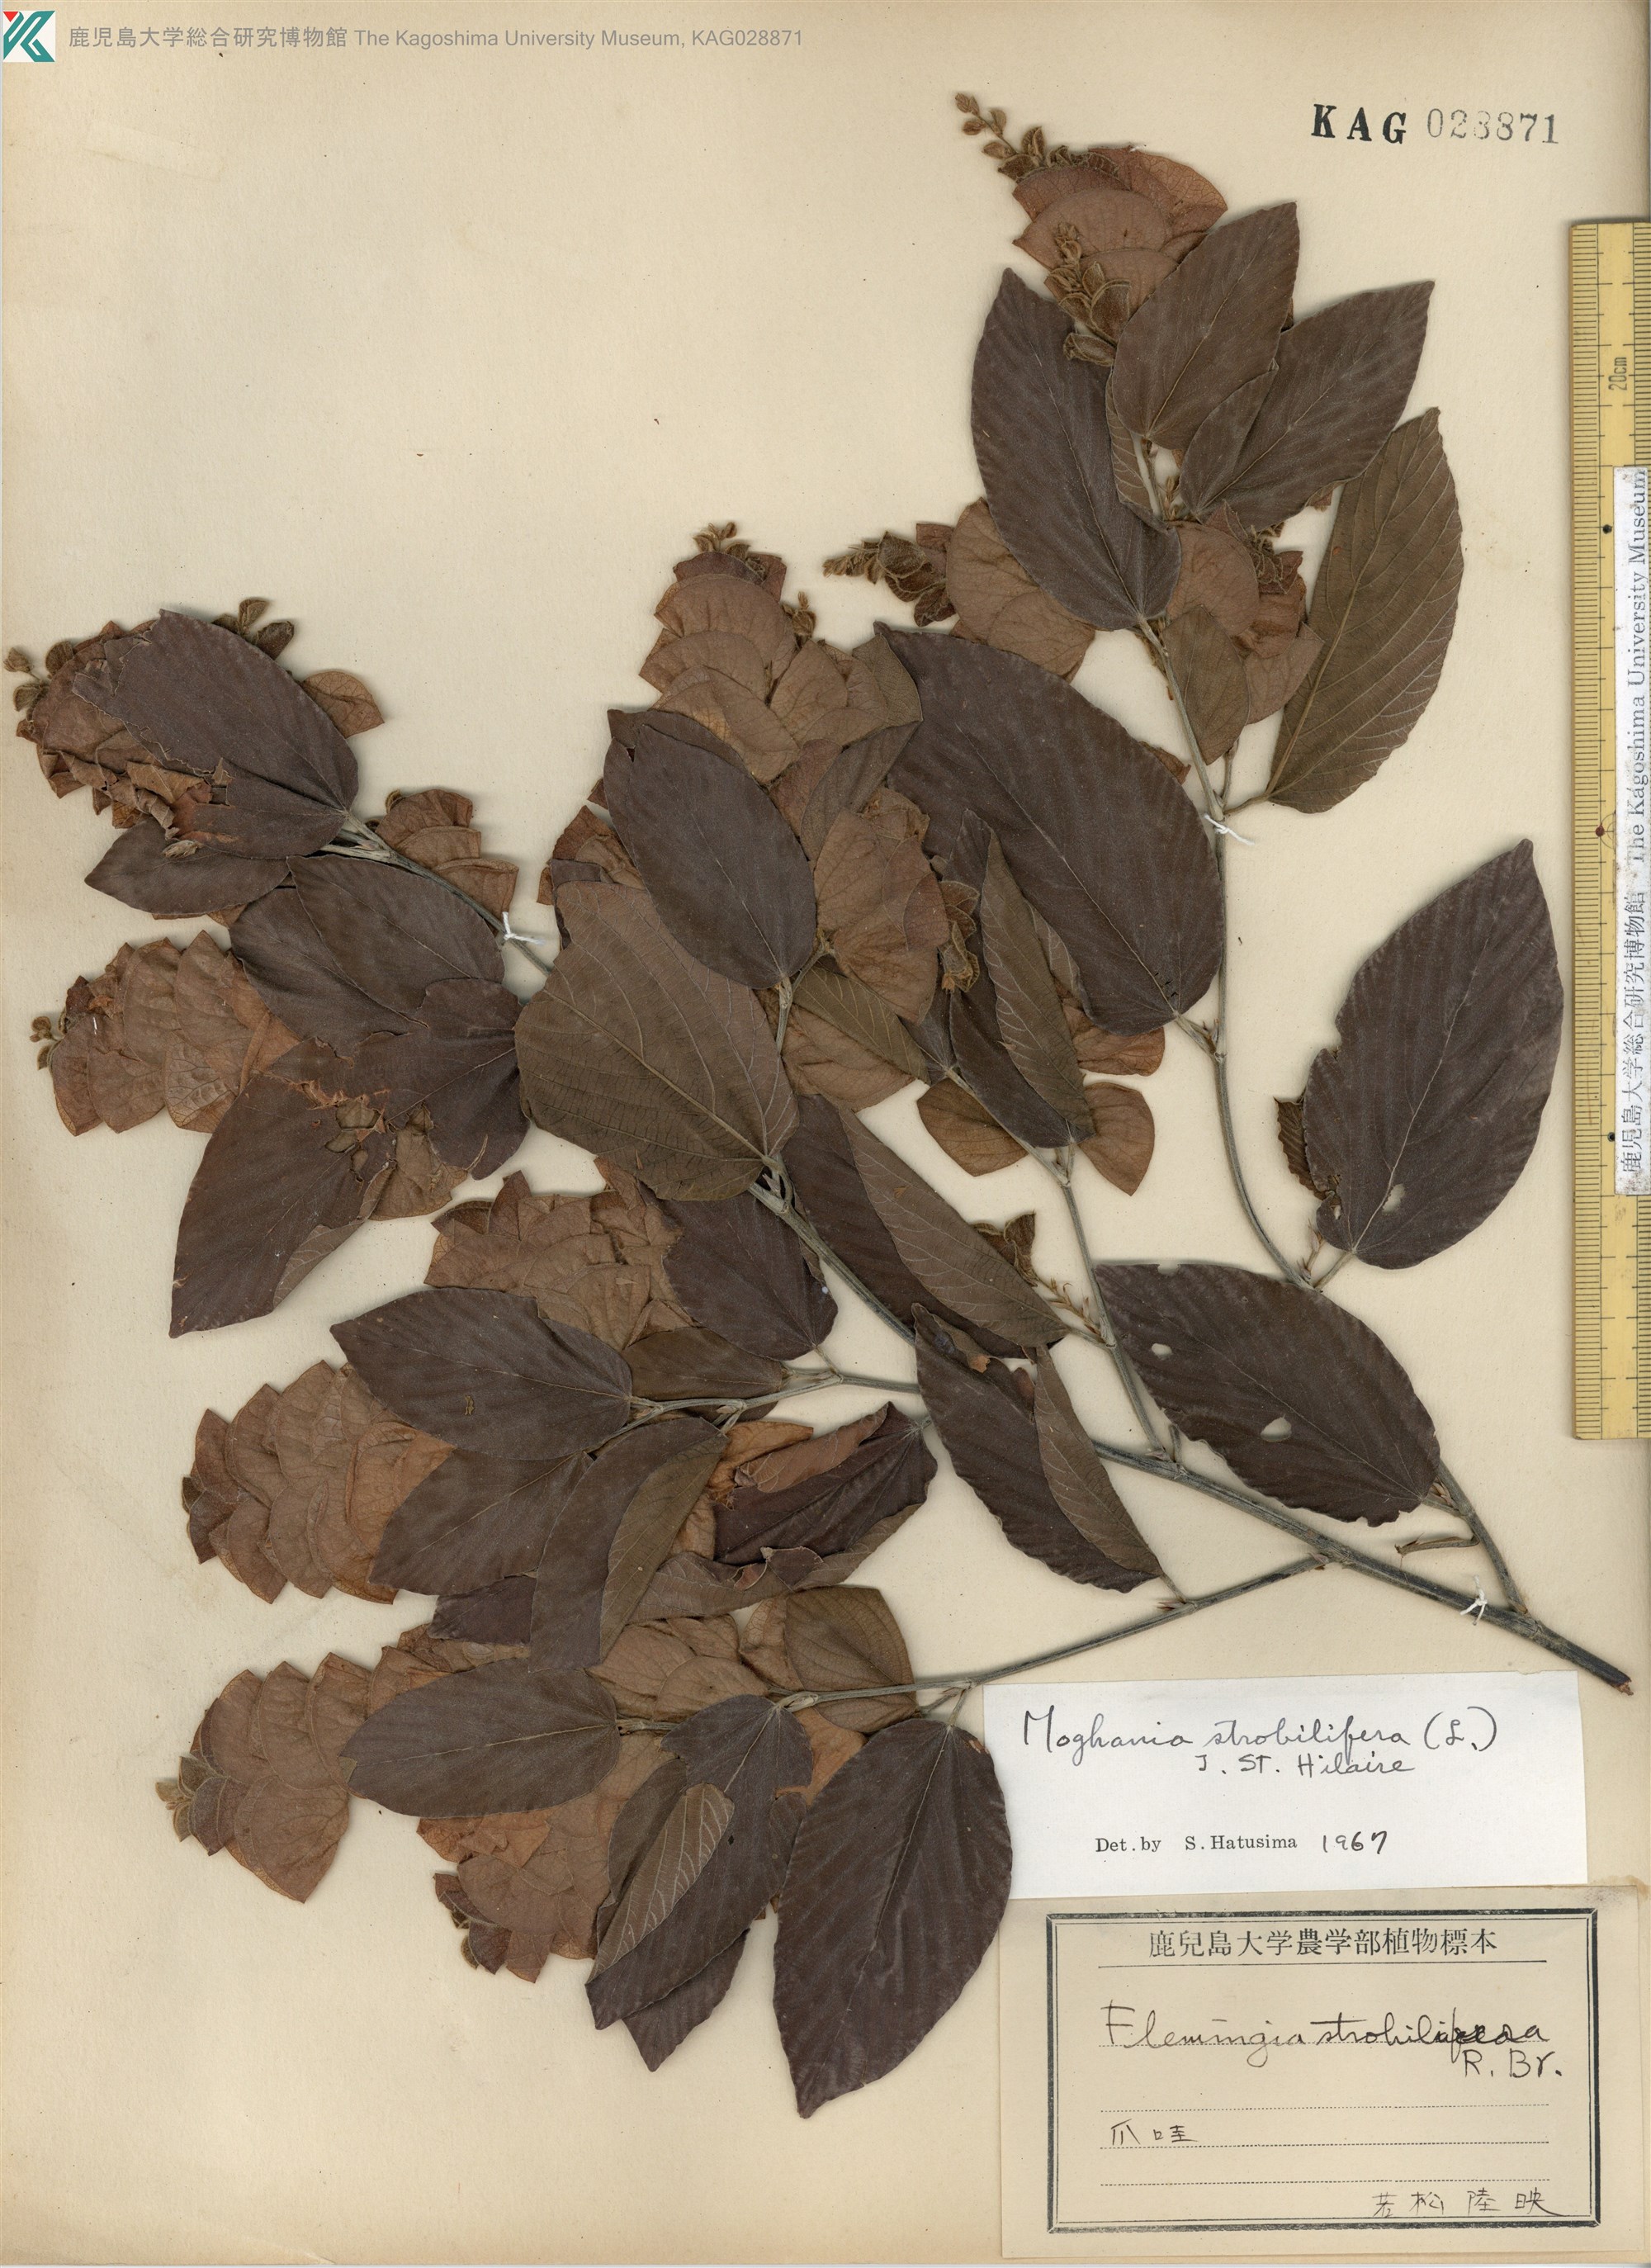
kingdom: Plantae
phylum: Tracheophyta
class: Magnoliopsida
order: Fabales
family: Fabaceae
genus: Flemingia
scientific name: Flemingia strobilifera
